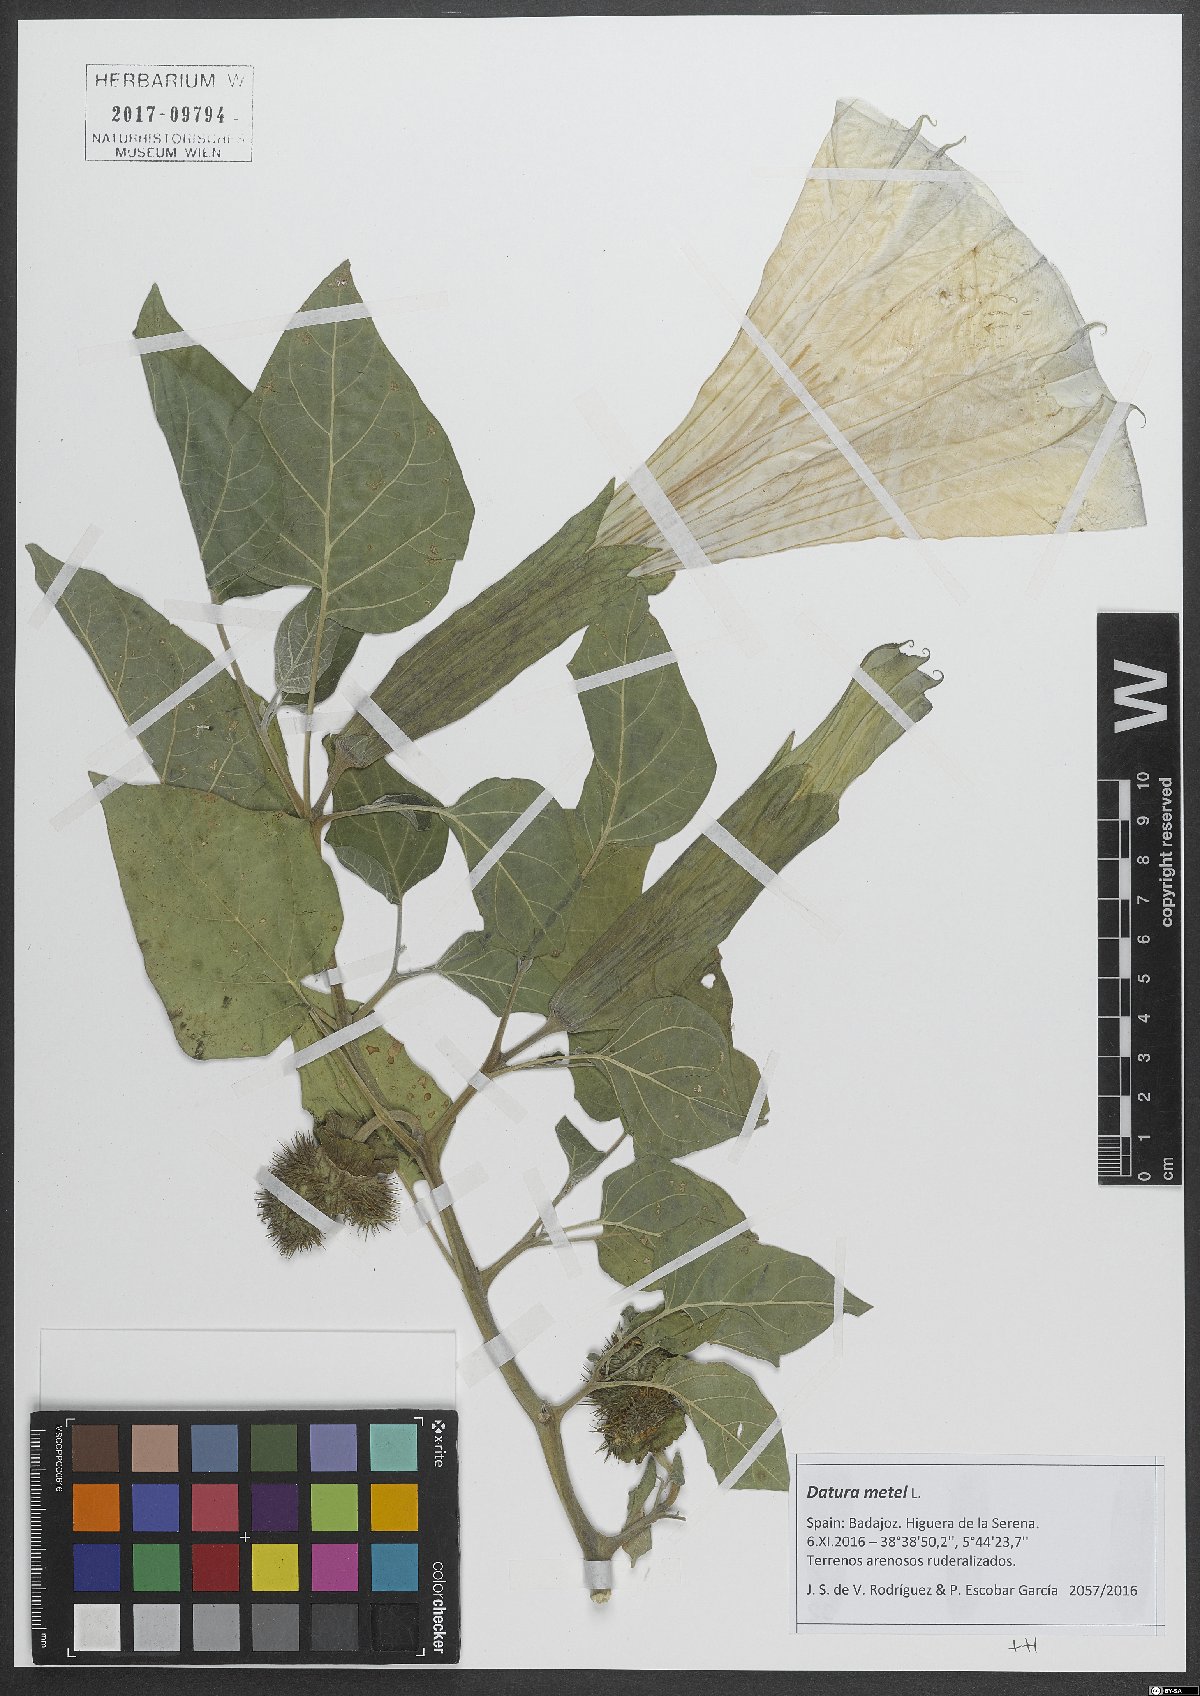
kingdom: Plantae
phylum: Tracheophyta
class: Magnoliopsida
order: Solanales
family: Solanaceae
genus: Datura
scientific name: Datura metel
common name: Jimsonweed
